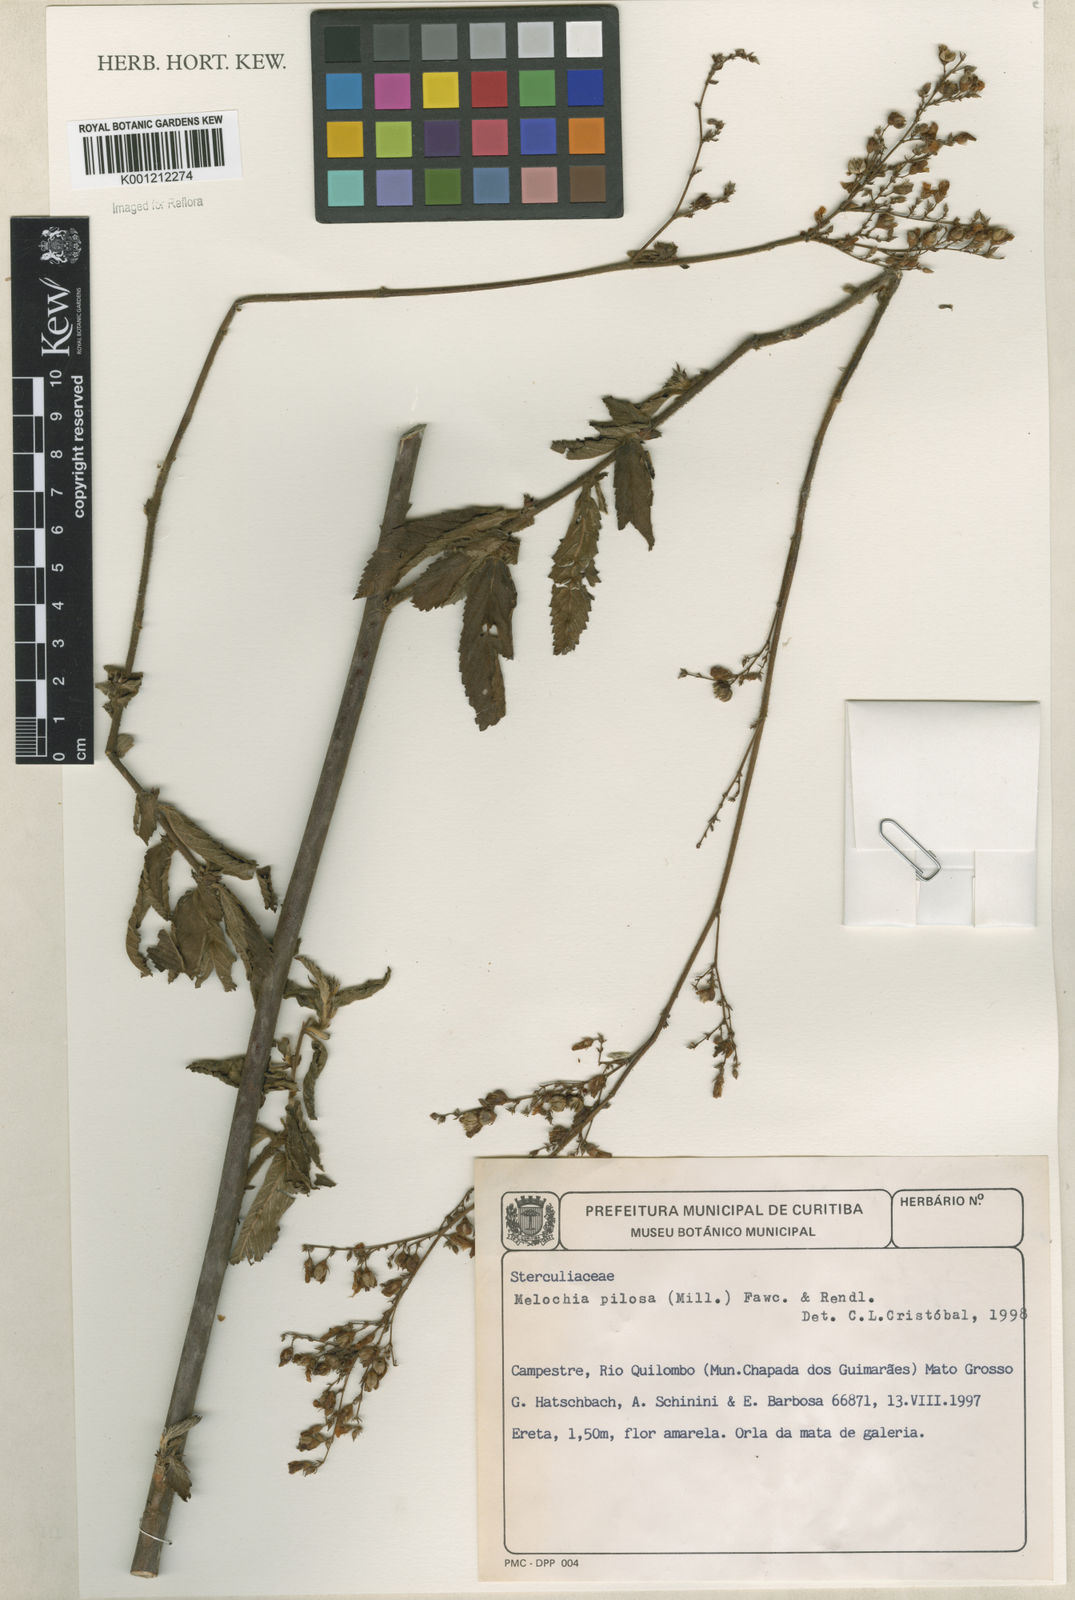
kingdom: Plantae
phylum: Tracheophyta
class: Magnoliopsida
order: Malvales
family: Malvaceae
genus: Melochia
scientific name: Melochia pilosa
